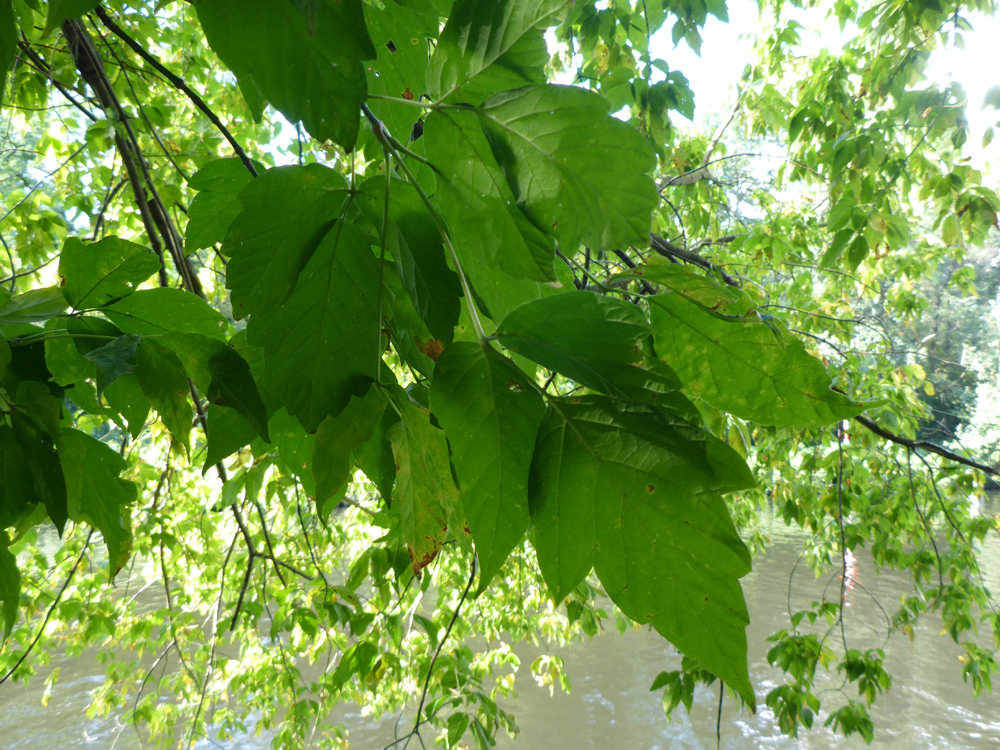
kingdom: Plantae
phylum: Tracheophyta
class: Magnoliopsida
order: Sapindales
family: Sapindaceae
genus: Acer
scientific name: Acer negundo
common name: Ashleaf maple
